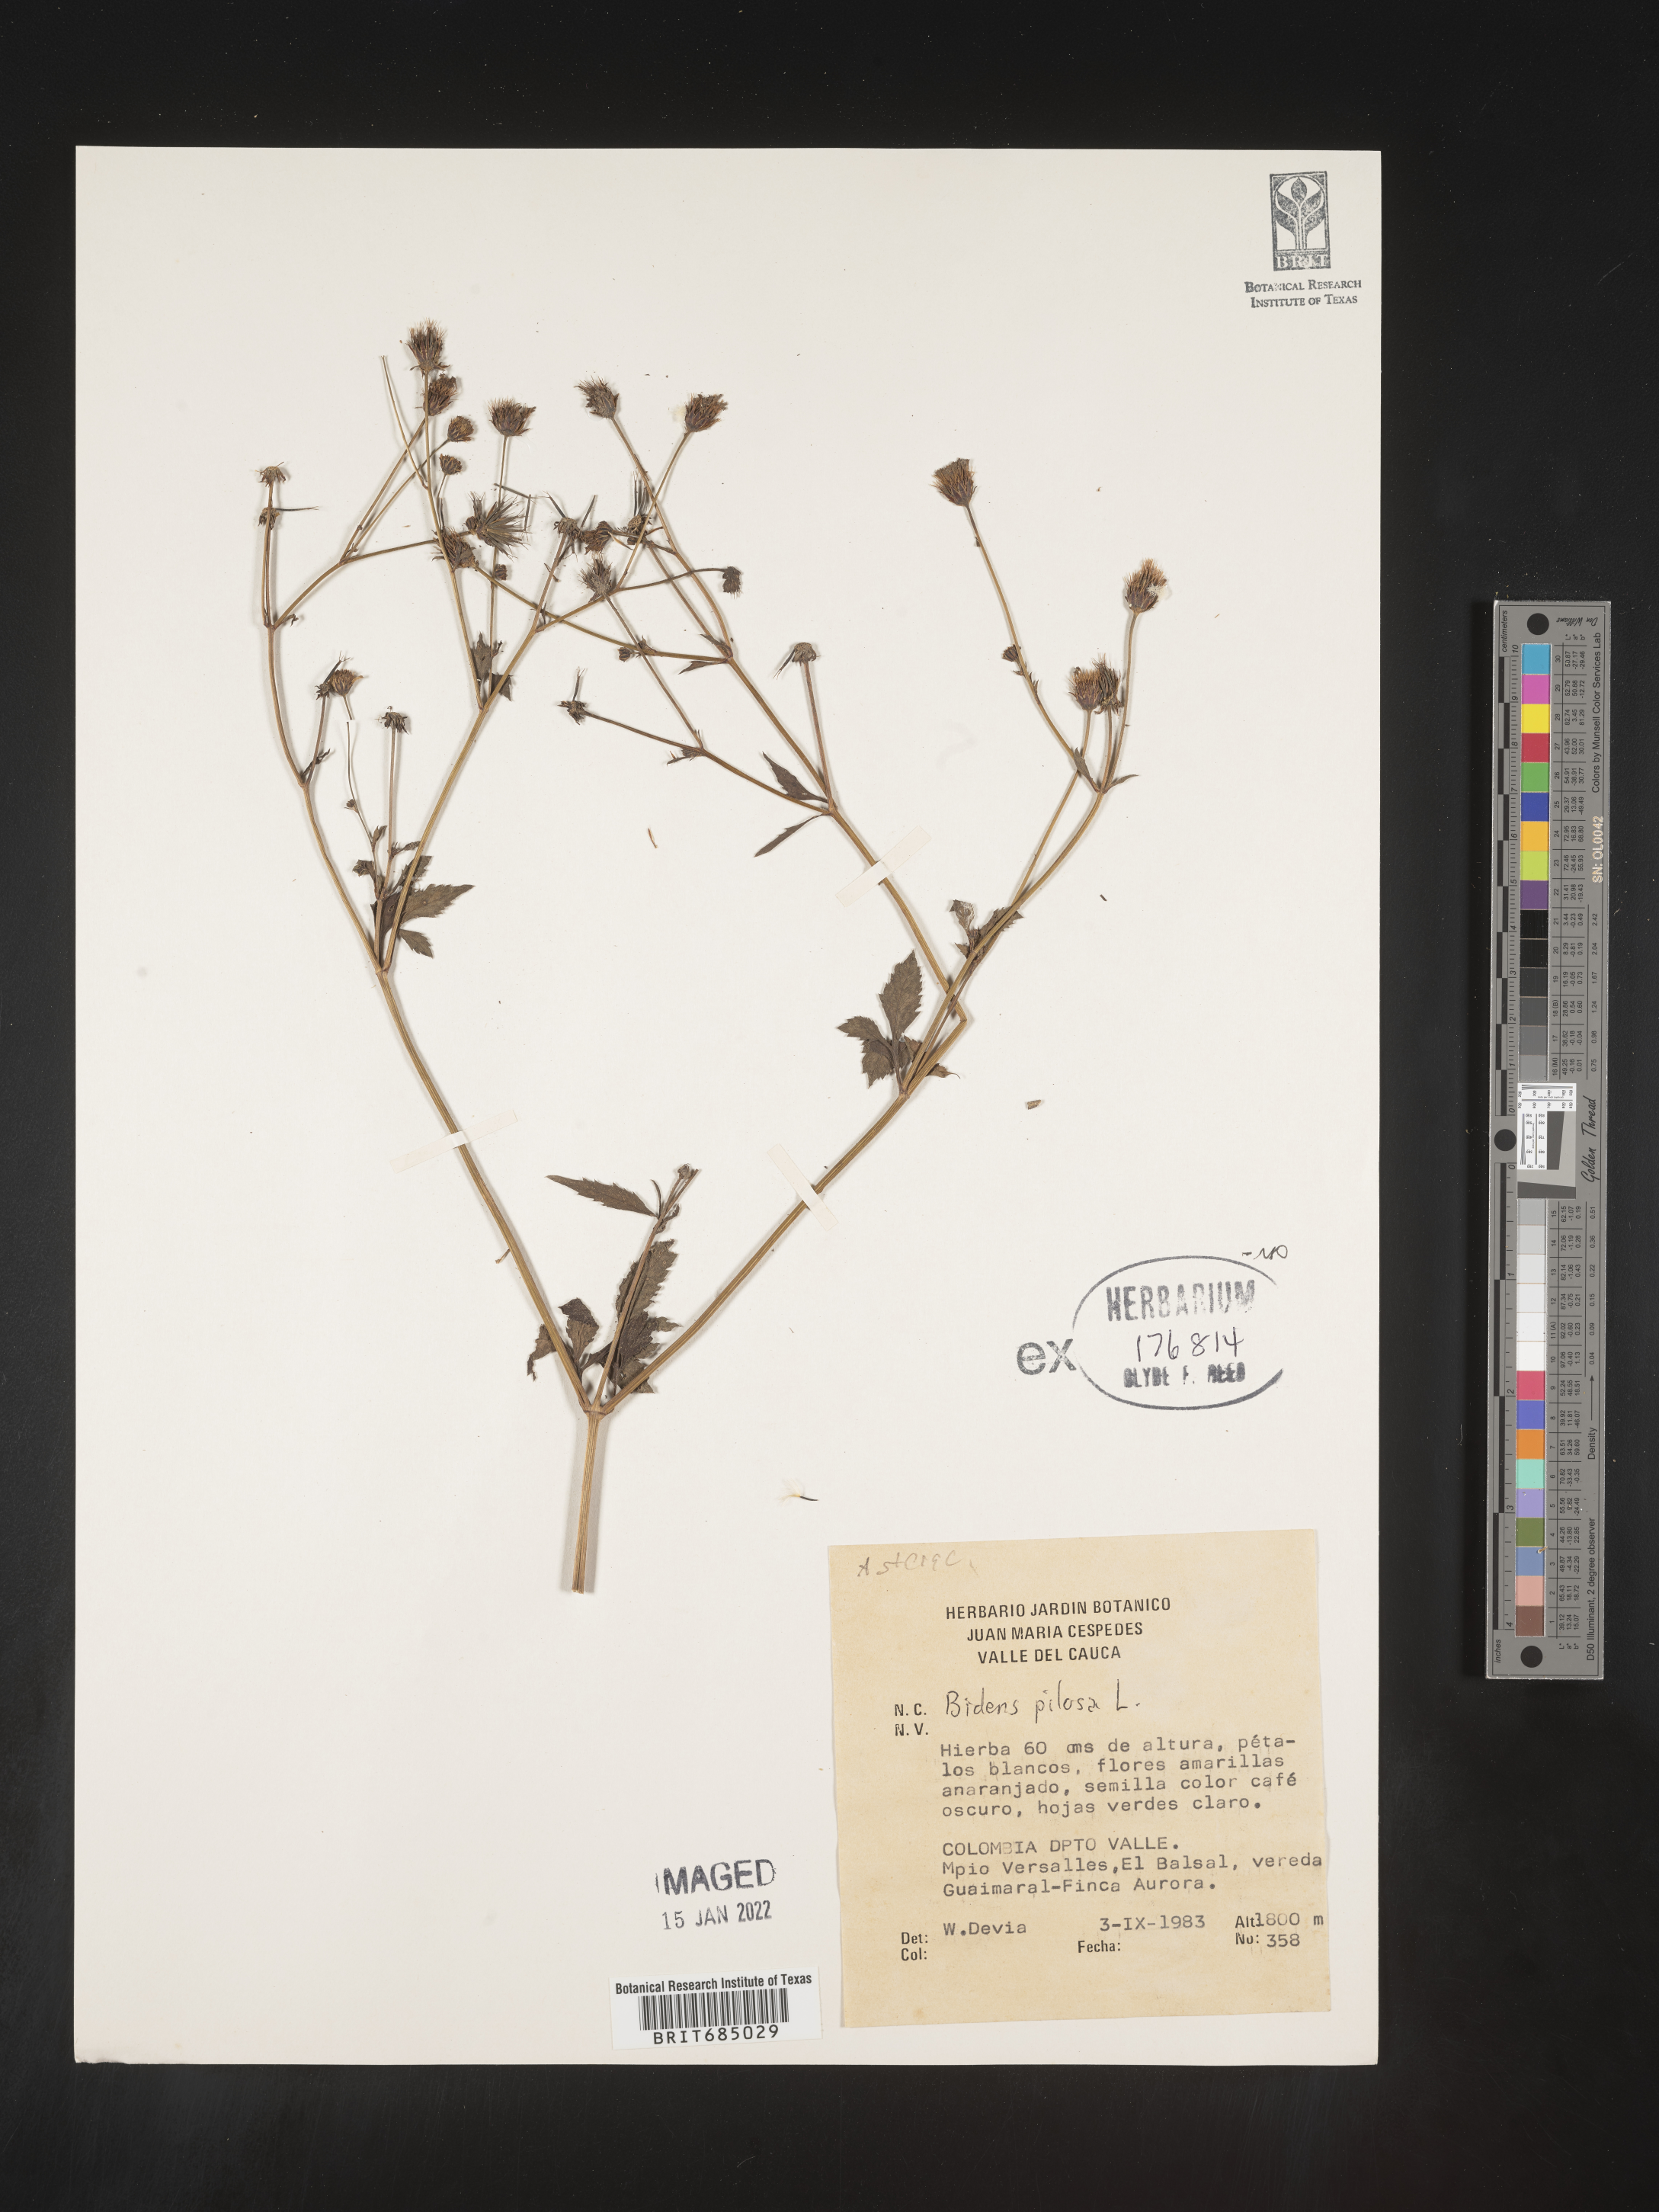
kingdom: Plantae
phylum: Tracheophyta
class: Magnoliopsida
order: Asterales
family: Asteraceae
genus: Bidens
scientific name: Bidens
